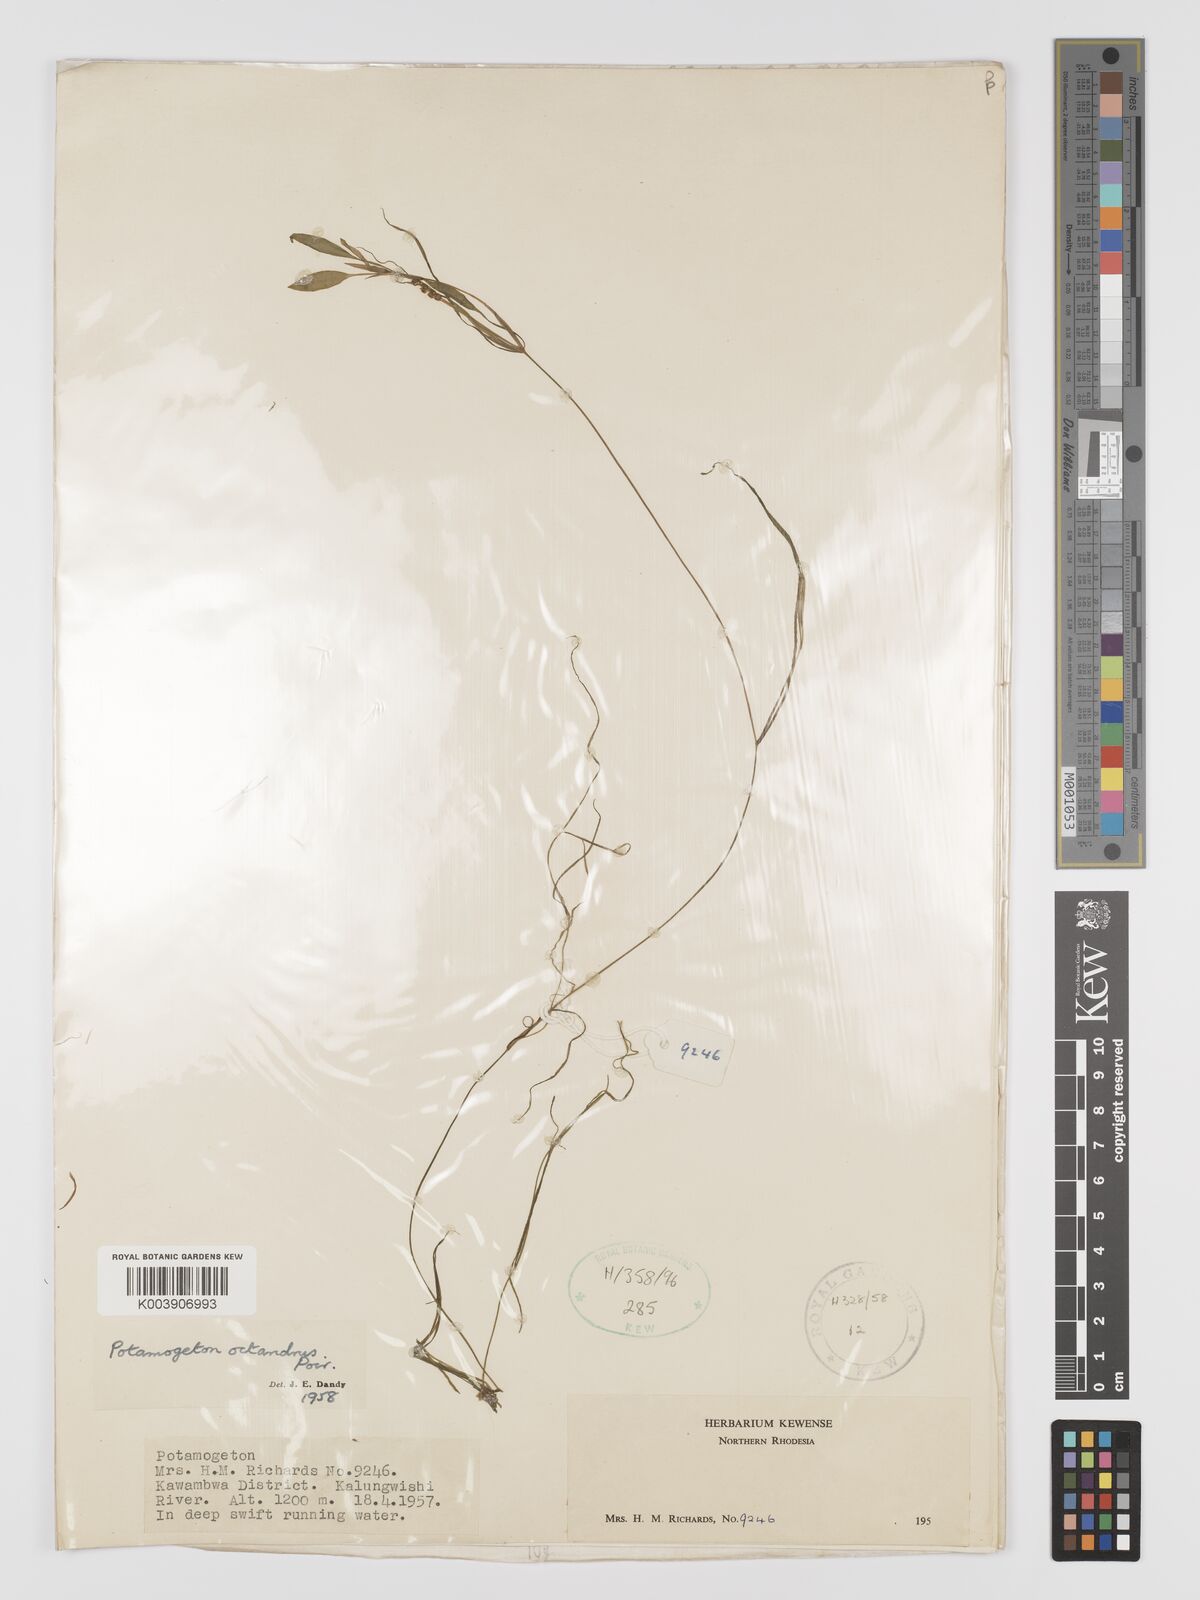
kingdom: Plantae
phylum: Tracheophyta
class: Liliopsida
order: Alismatales
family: Potamogetonaceae
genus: Potamogeton
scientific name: Potamogeton octandrus
